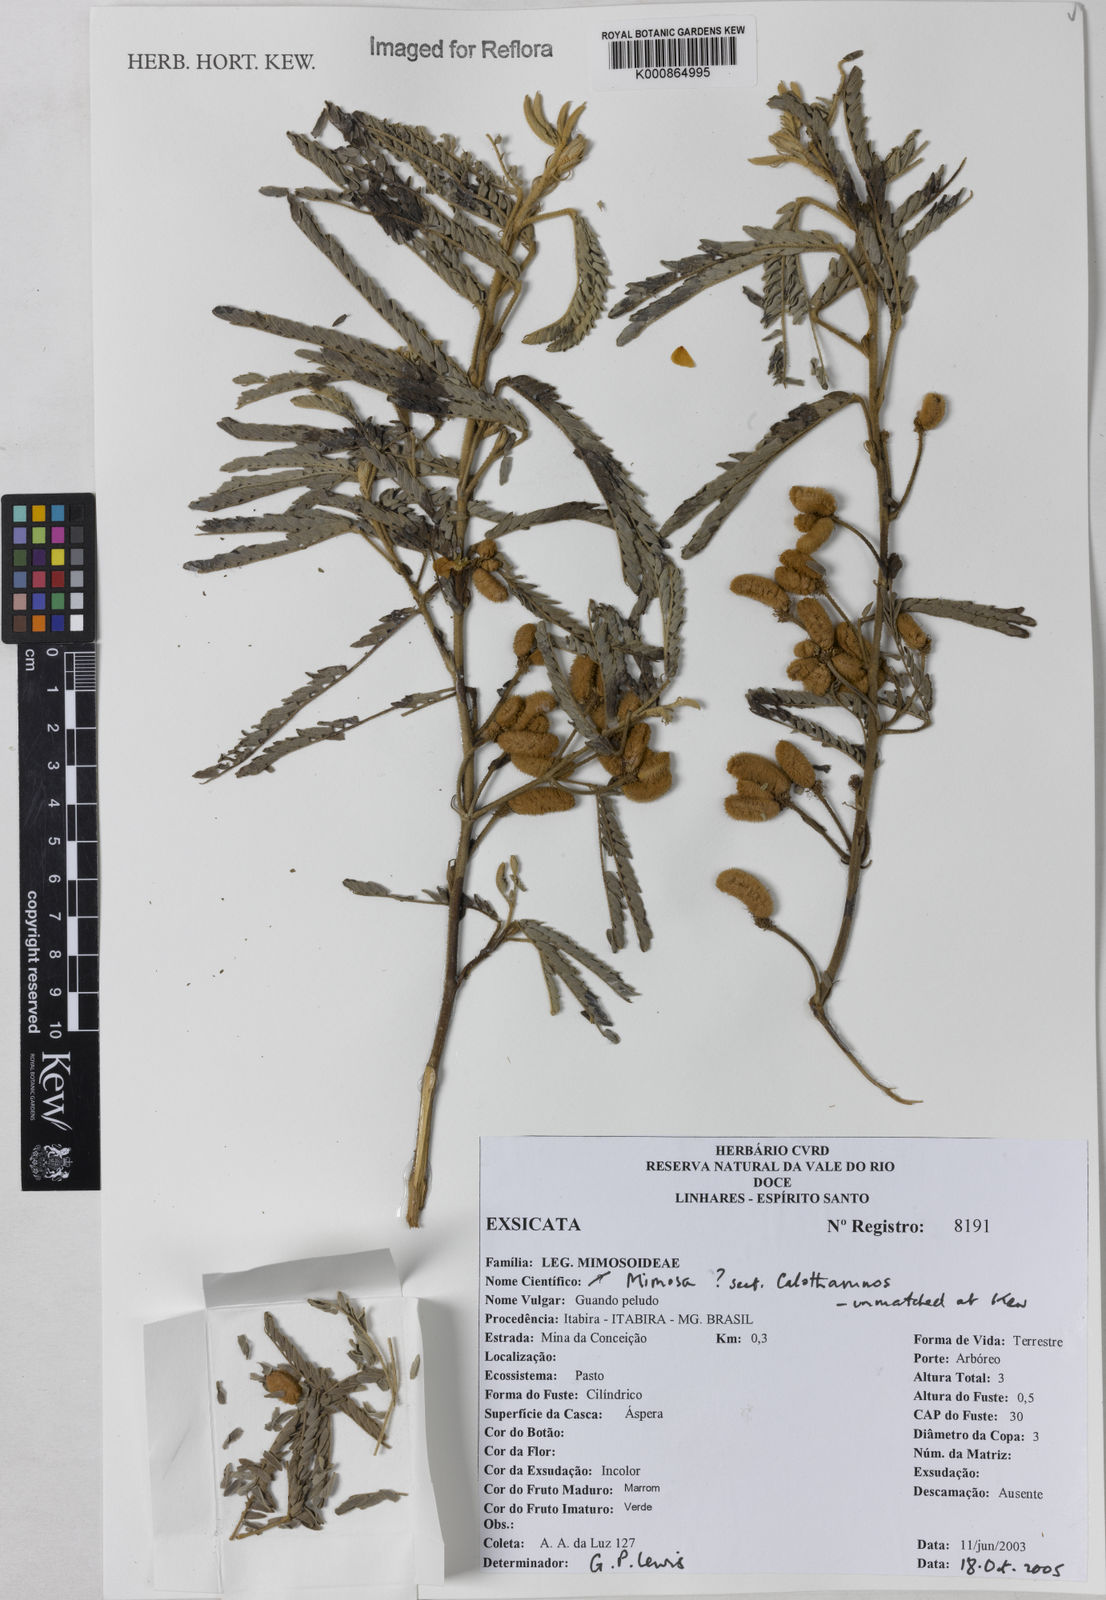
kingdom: Plantae
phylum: Tracheophyta
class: Magnoliopsida
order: Fabales
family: Fabaceae
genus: Mimosa
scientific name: Mimosa
